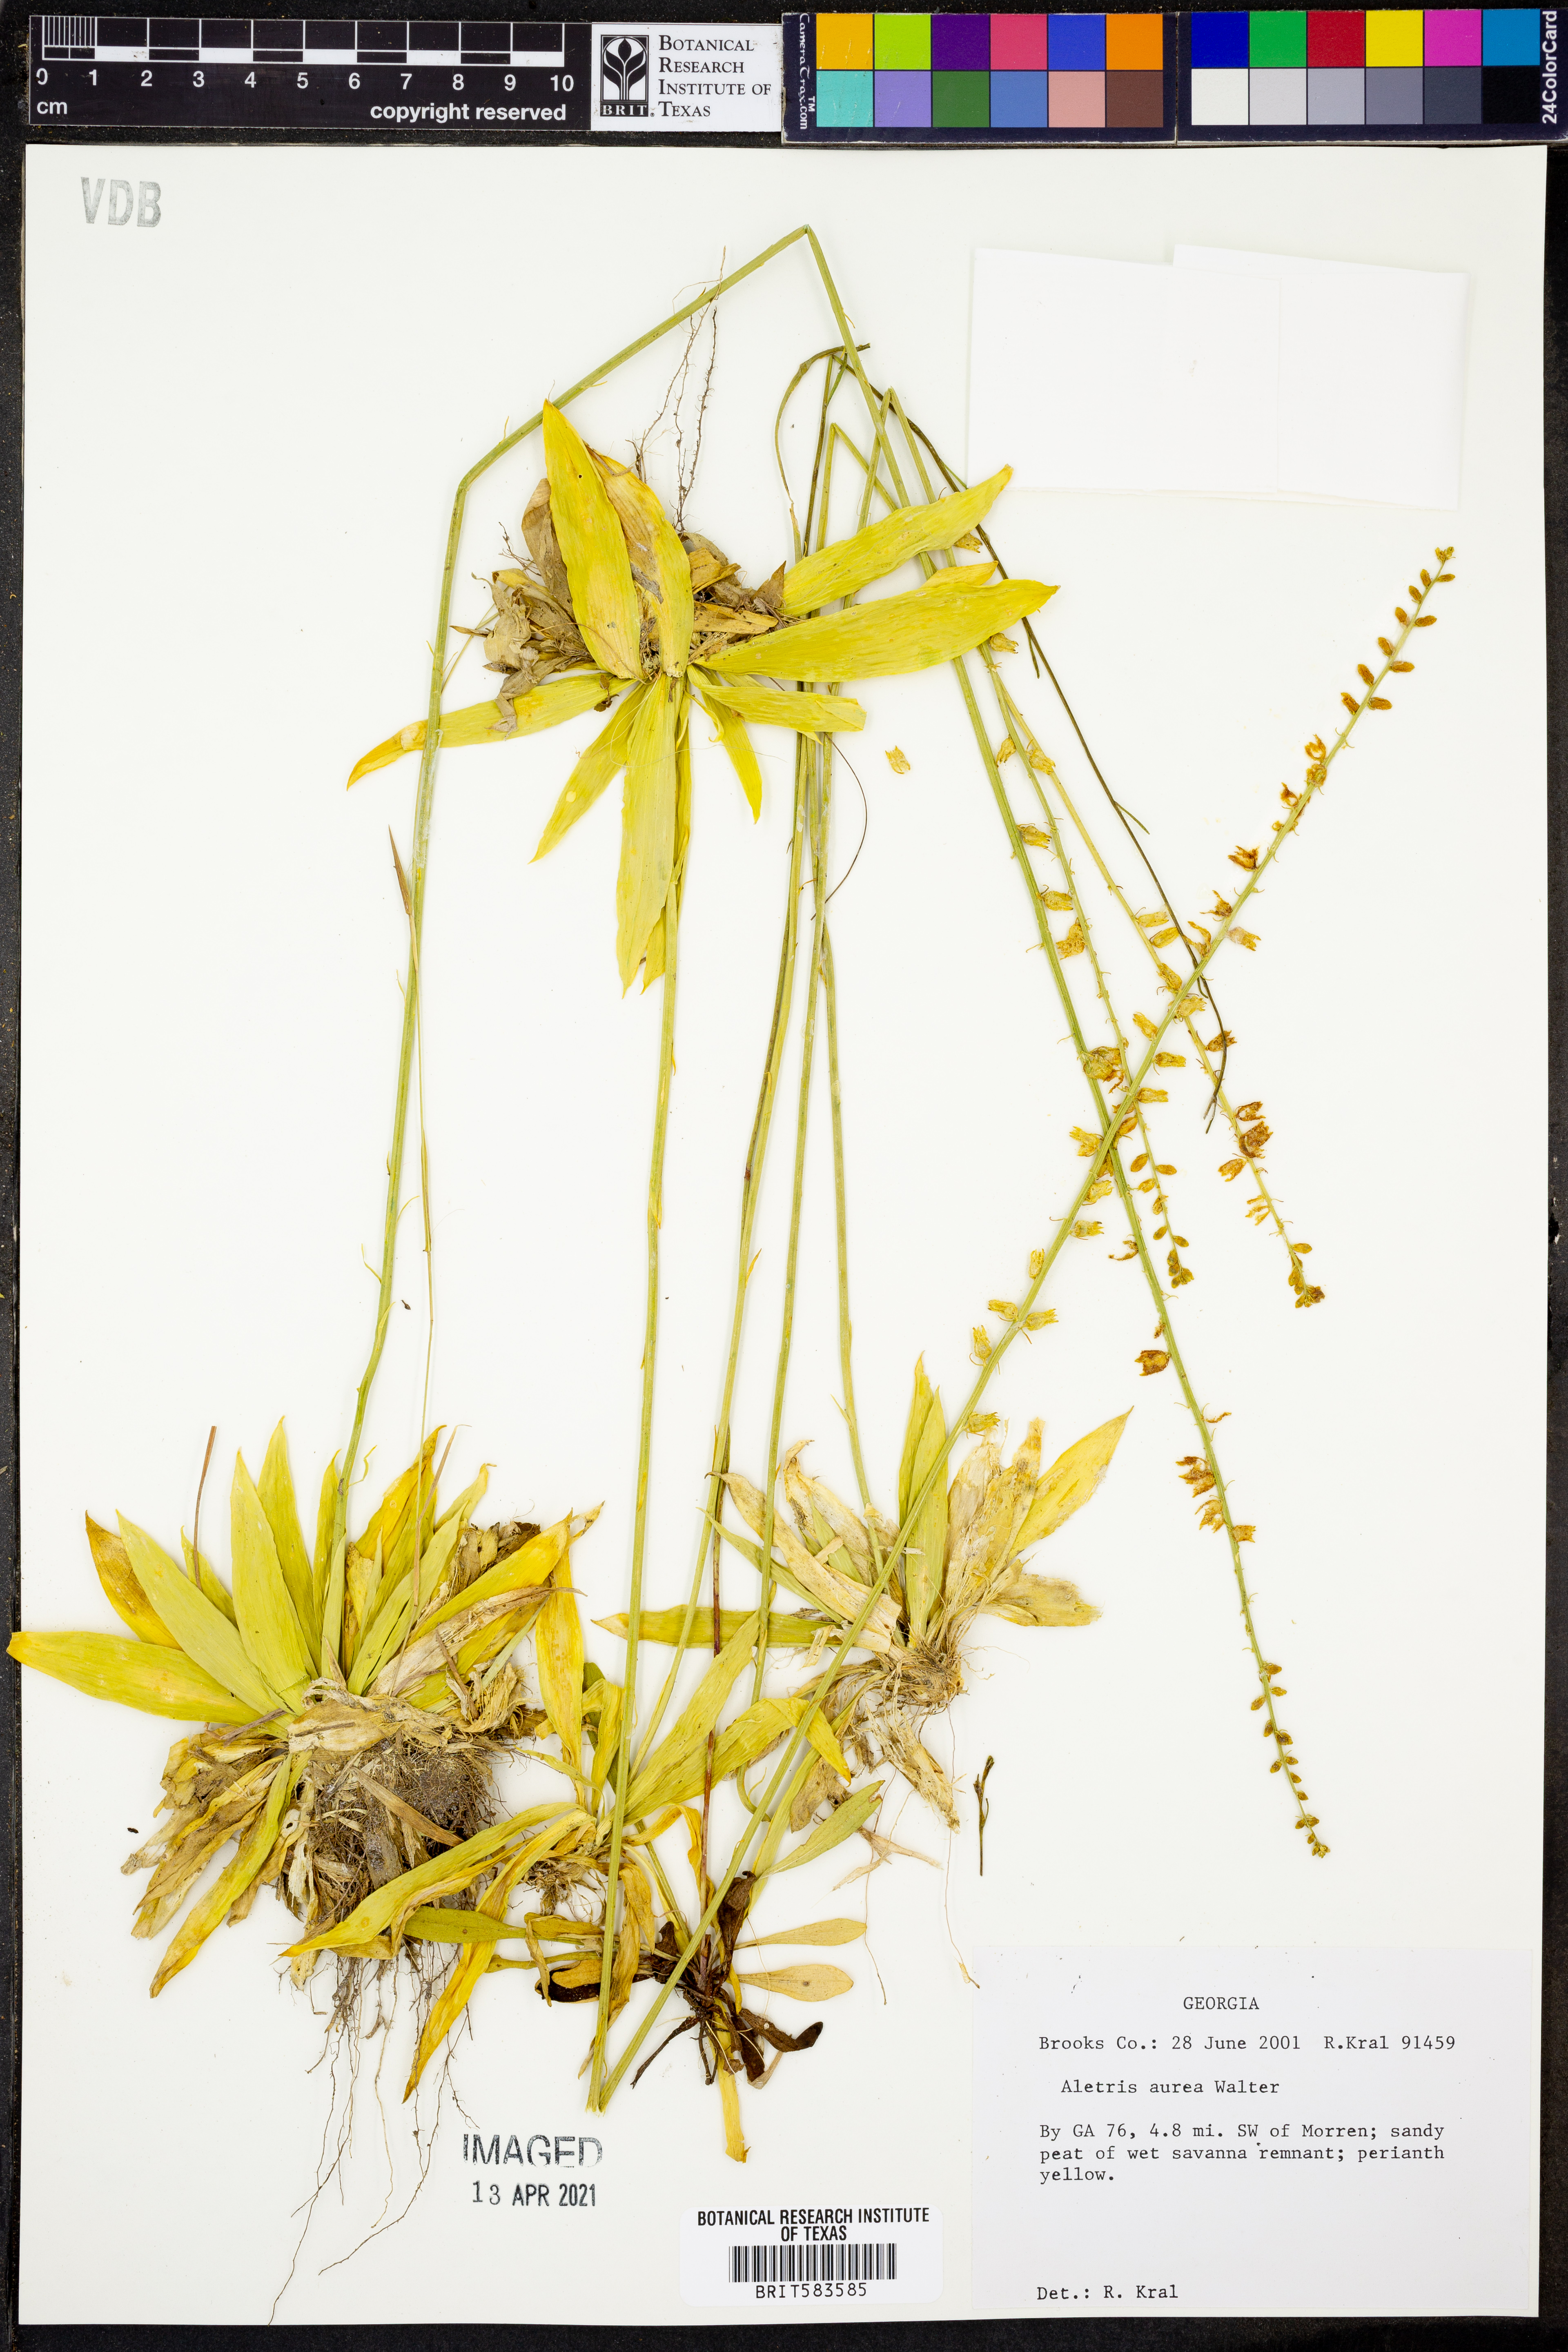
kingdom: Plantae
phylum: Tracheophyta
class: Liliopsida
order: Dioscoreales
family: Nartheciaceae
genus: Aletris
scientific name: Aletris aurea
